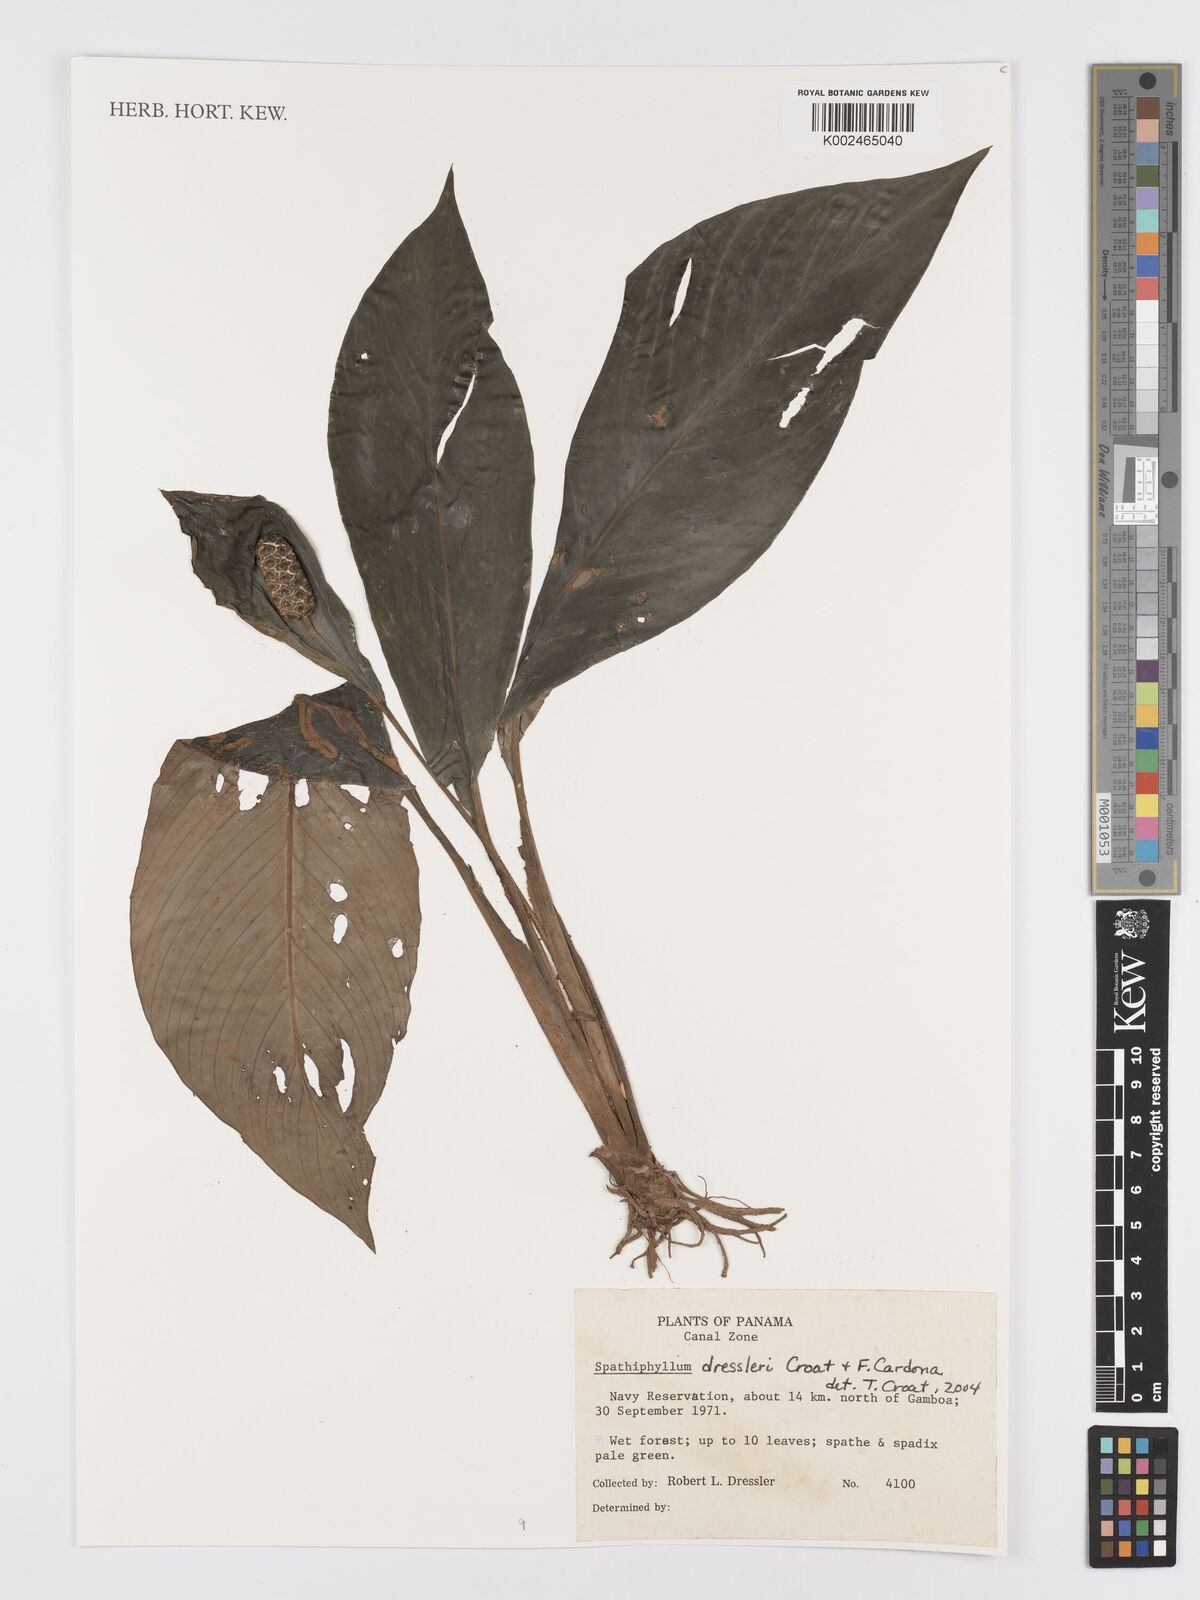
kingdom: Plantae
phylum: Tracheophyta
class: Liliopsida
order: Alismatales
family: Araceae
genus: Spathiphyllum
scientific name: Spathiphyllum dressleri
